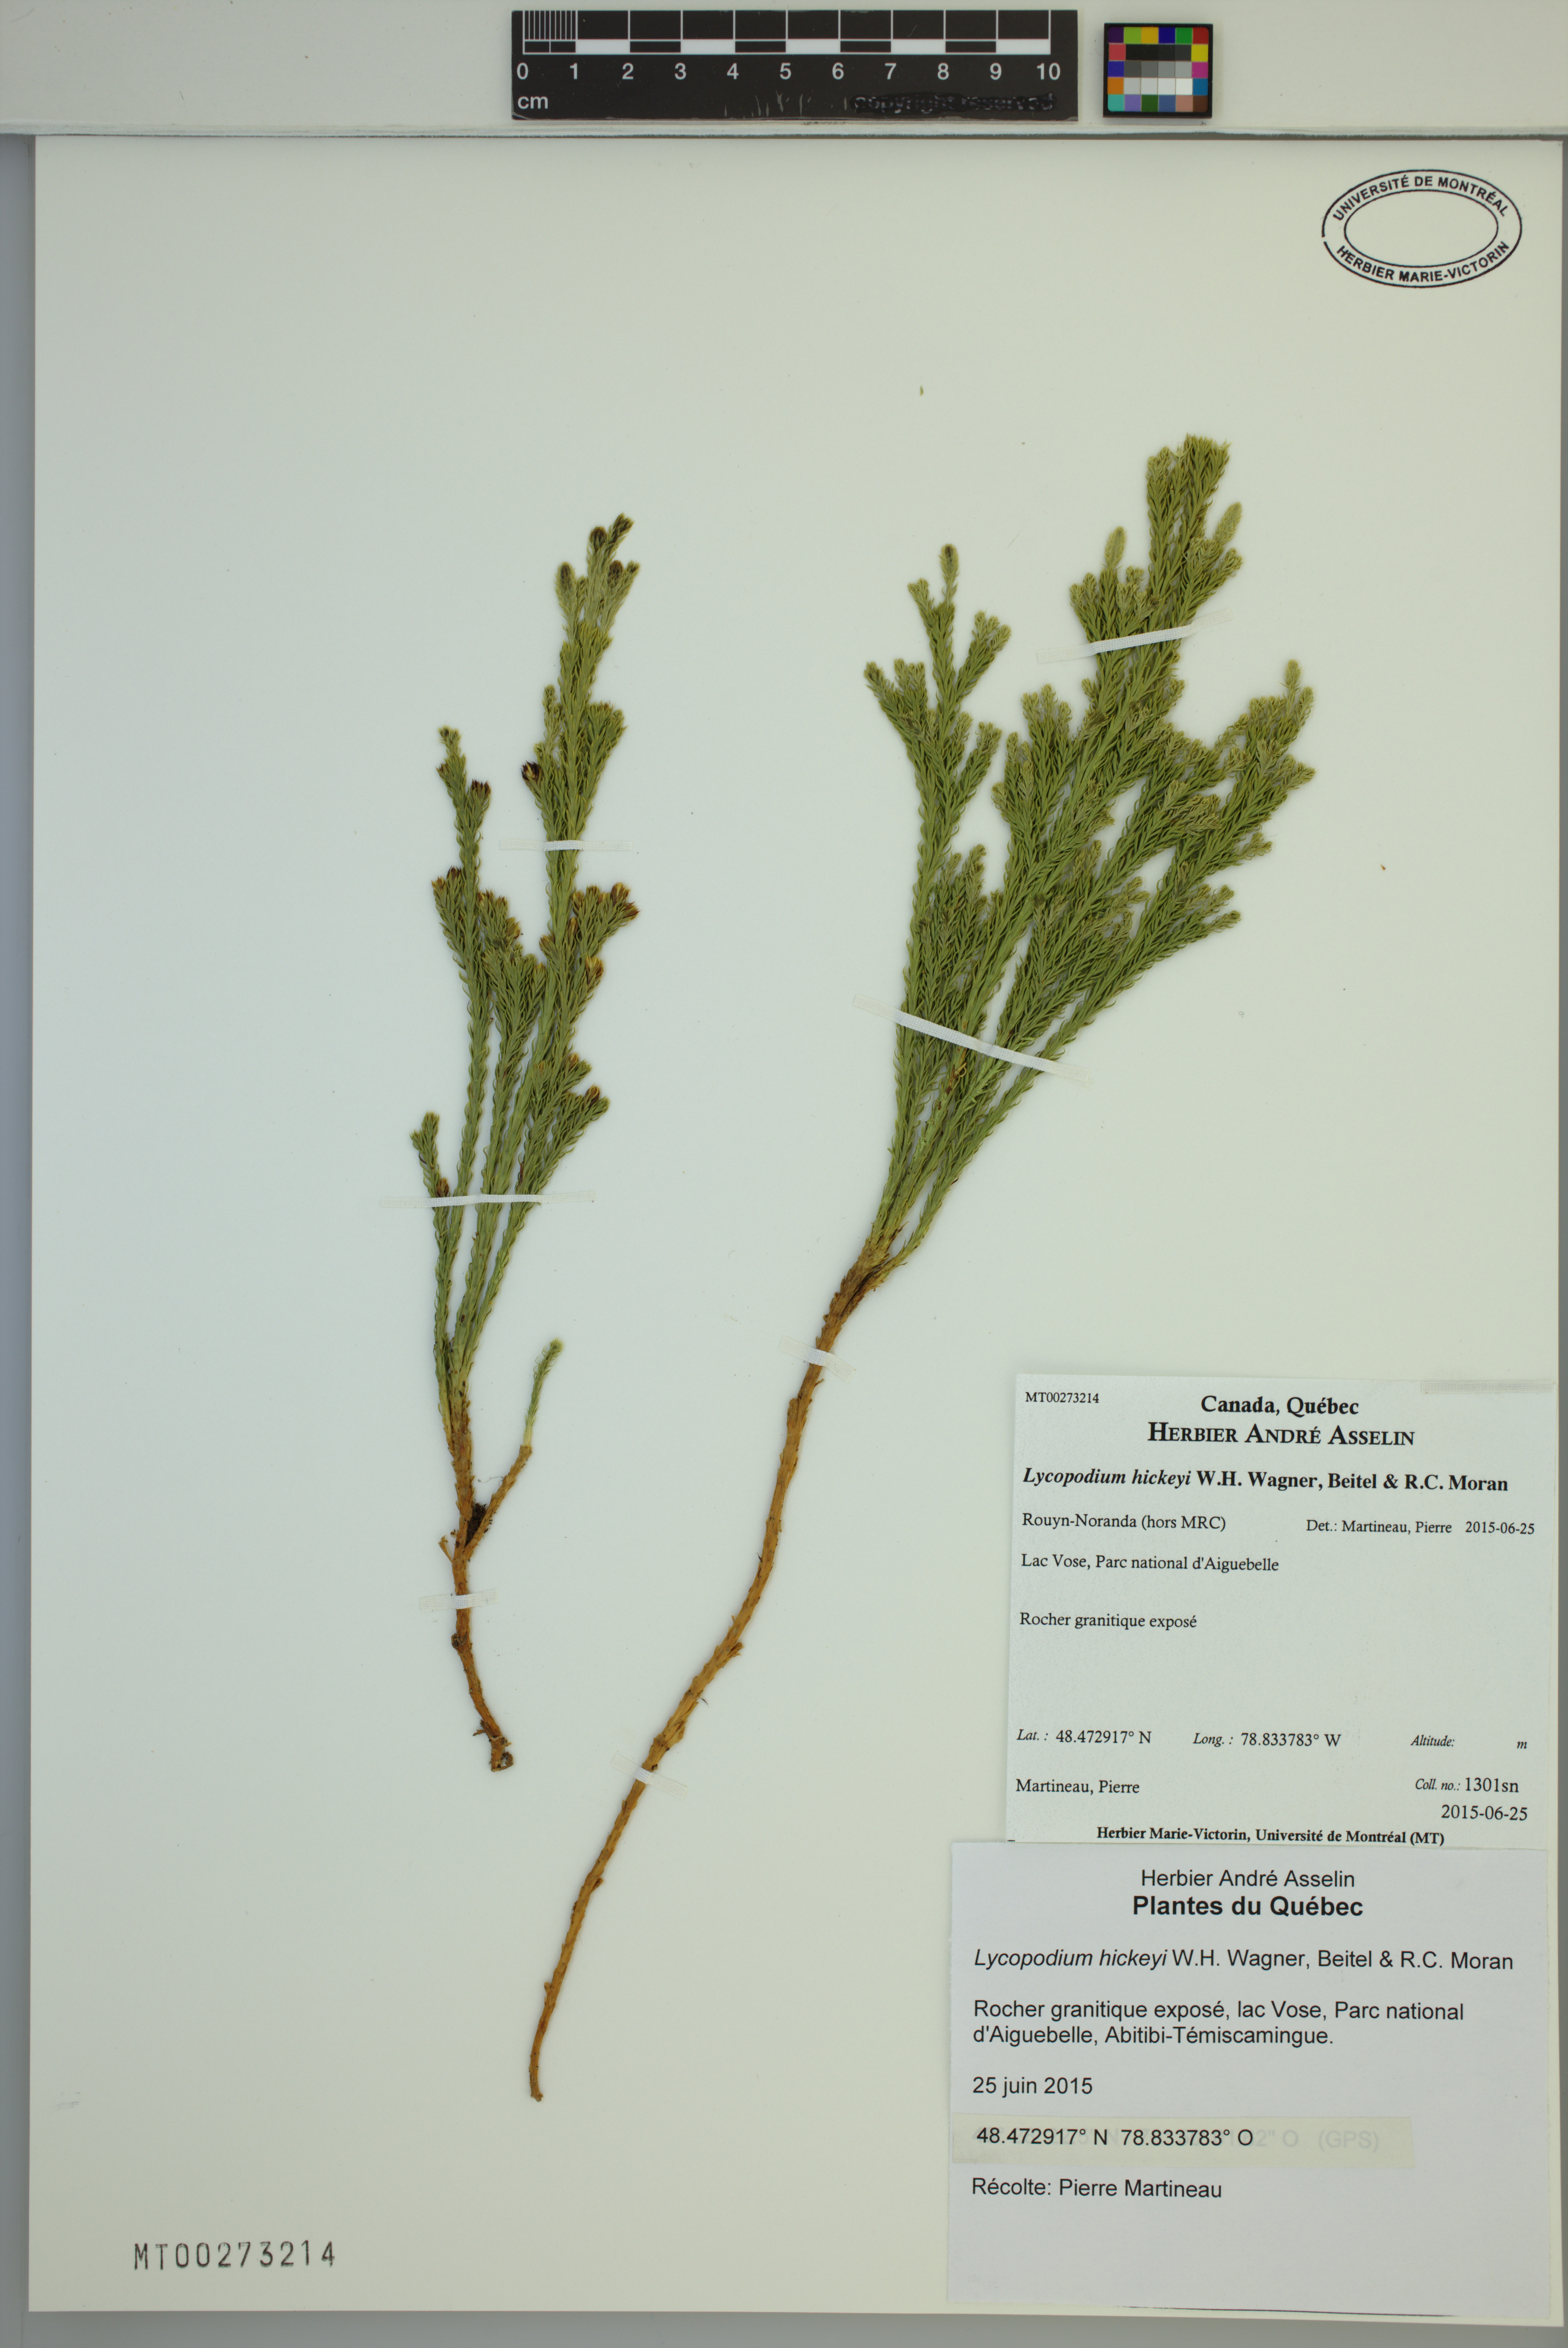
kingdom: Plantae
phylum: Tracheophyta
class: Lycopodiopsida
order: Lycopodiales
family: Lycopodiaceae
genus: Dendrolycopodium
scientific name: Dendrolycopodium hickeyi
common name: Hickey's clubmoss
